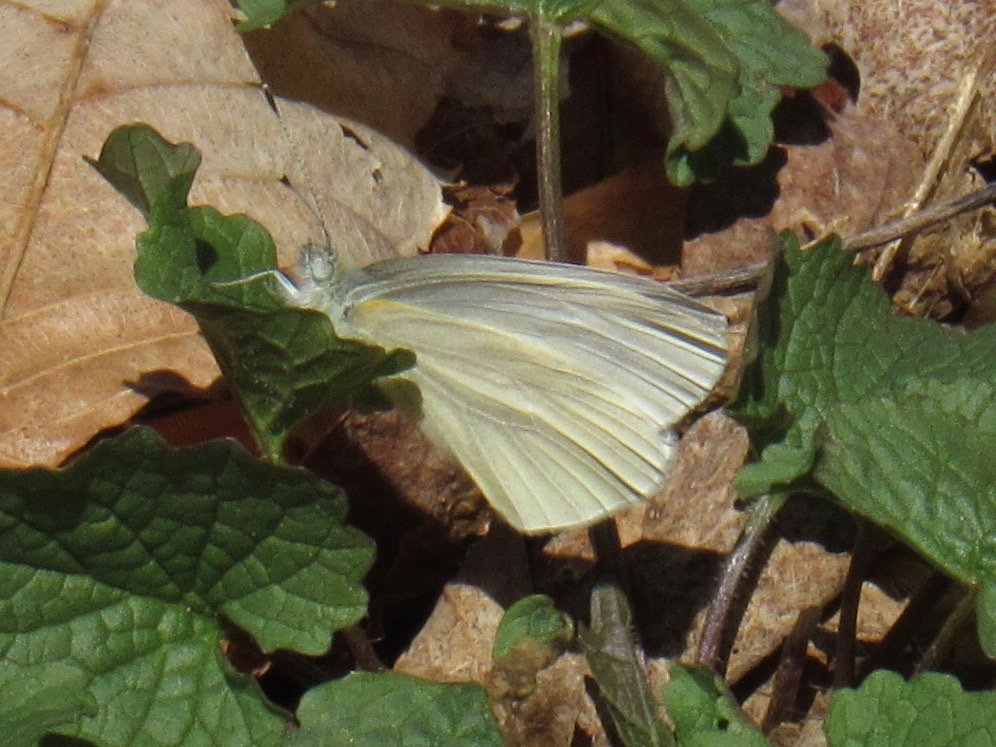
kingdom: Animalia
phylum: Arthropoda
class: Insecta
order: Lepidoptera
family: Pieridae
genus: Pieris
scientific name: Pieris virginiensis
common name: West Virginia White
